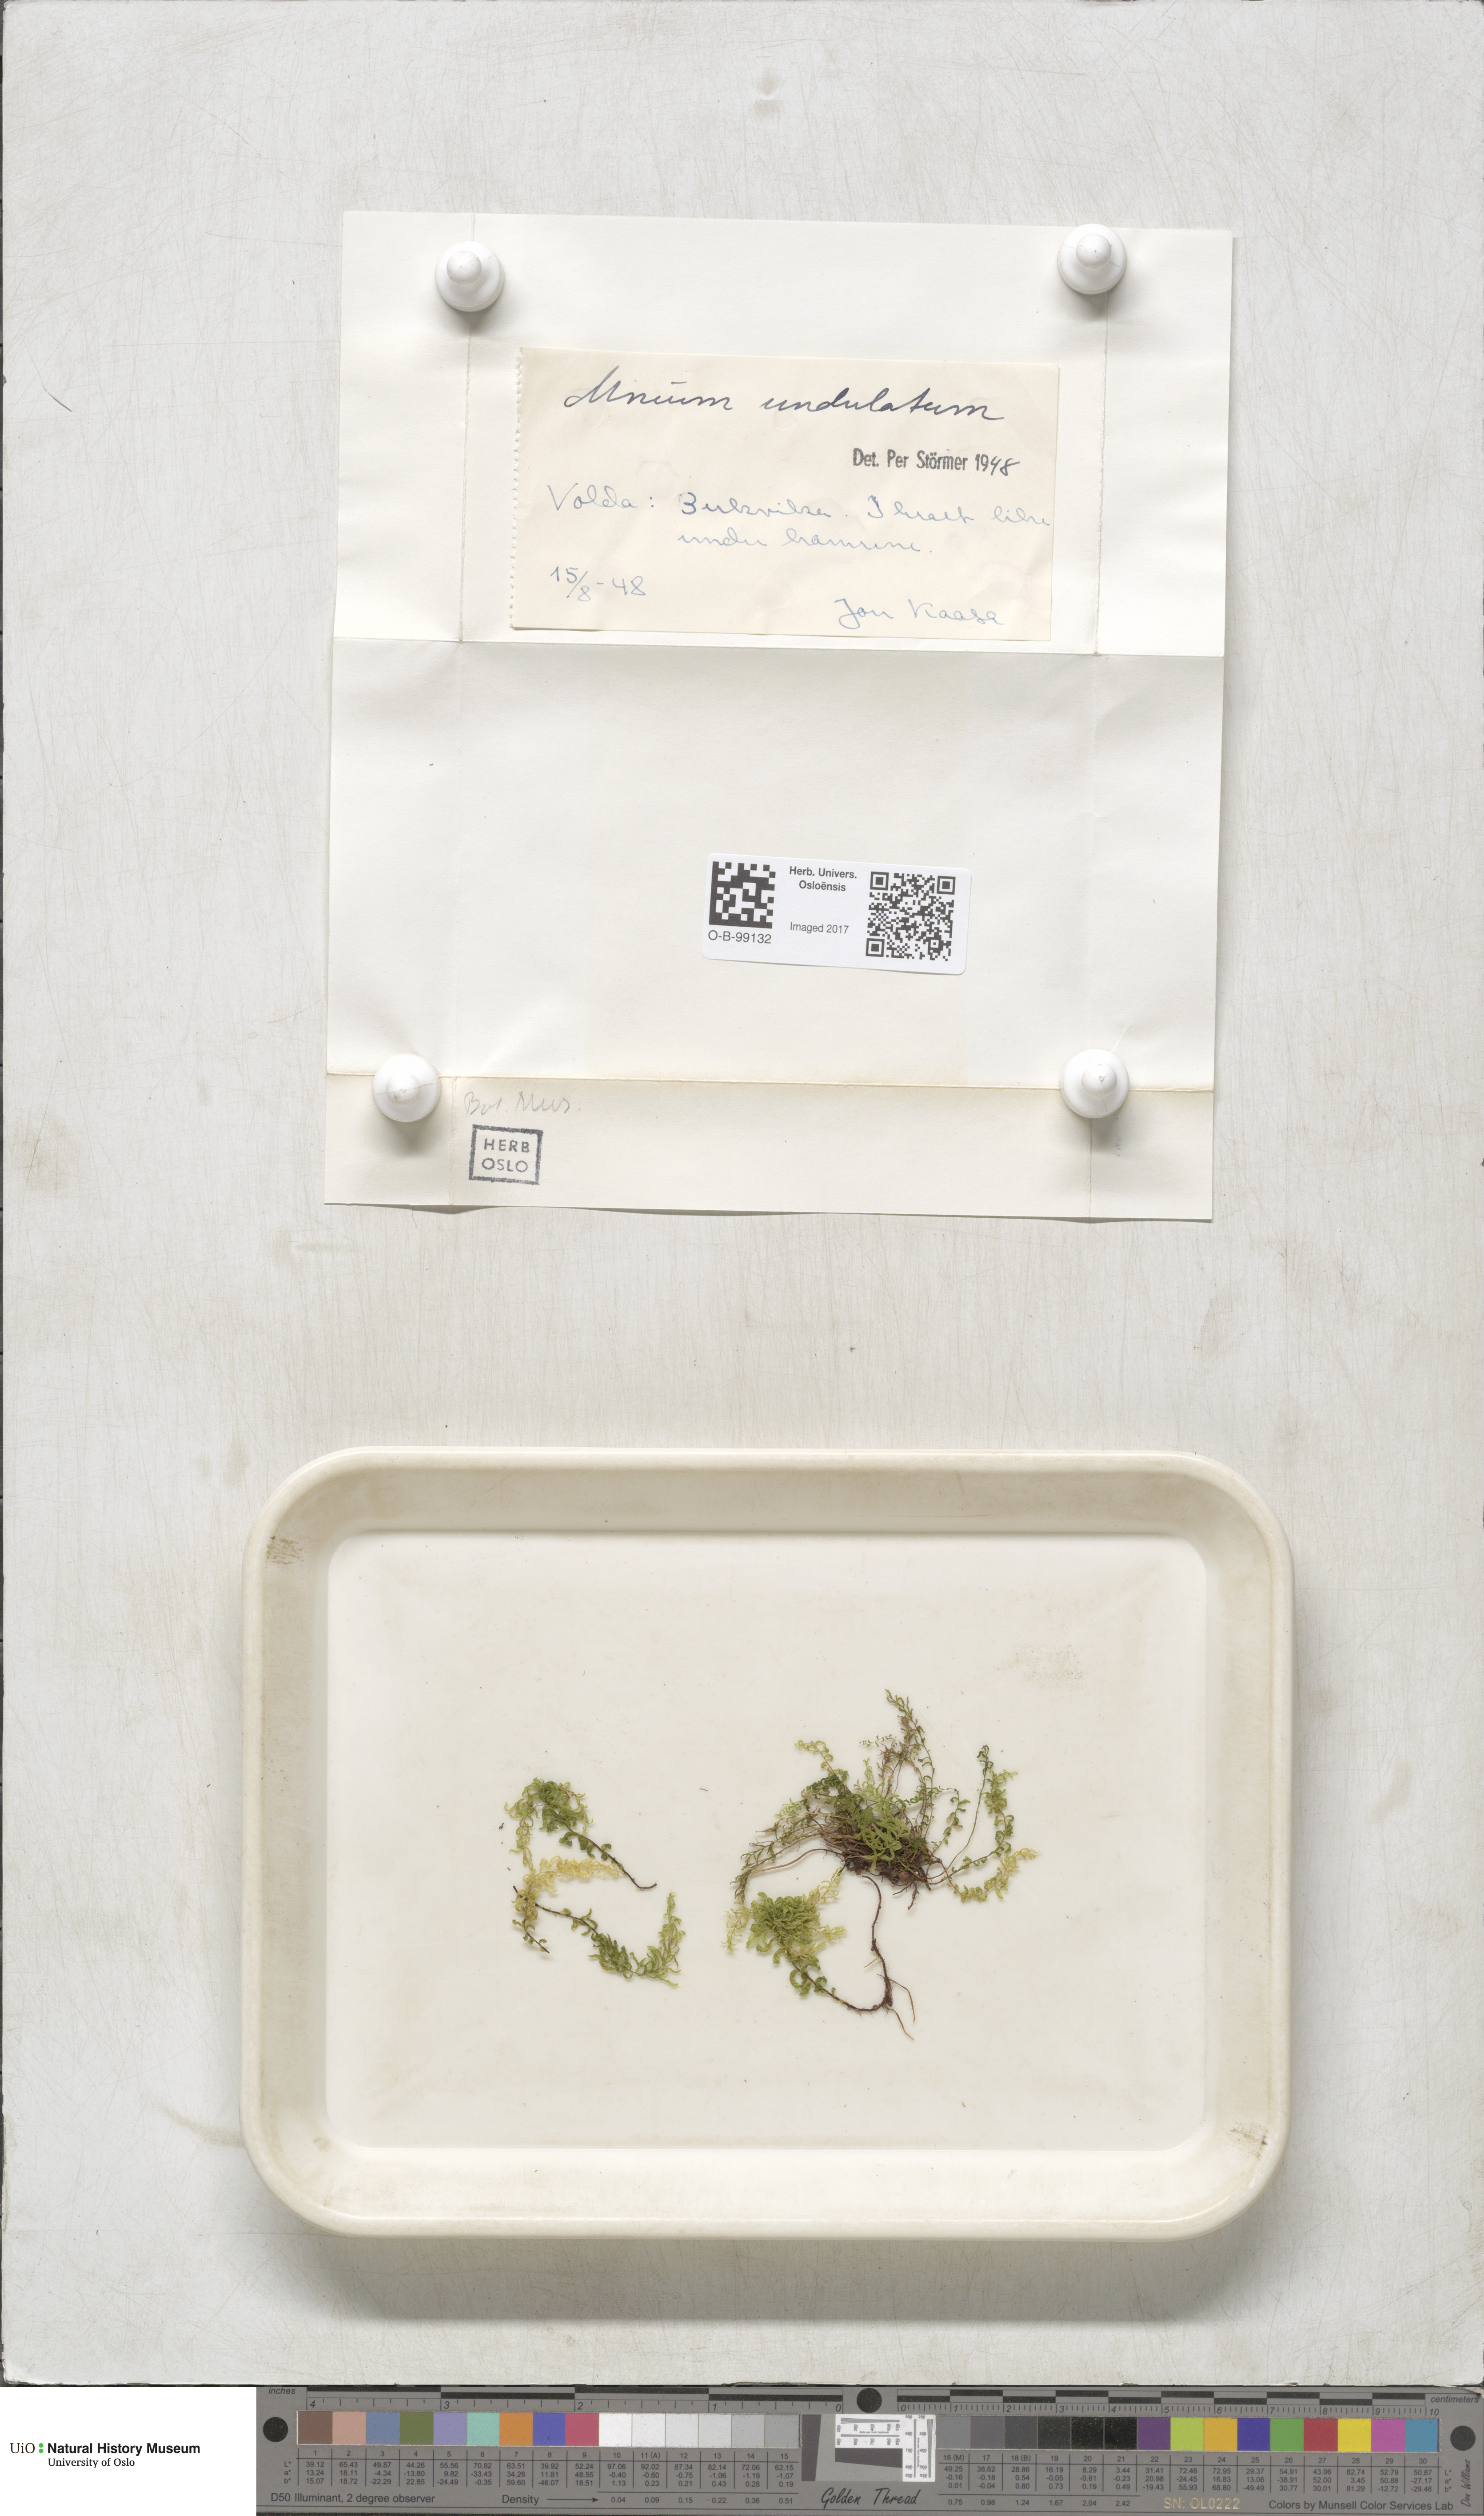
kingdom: Plantae
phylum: Bryophyta
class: Bryopsida
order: Bryales
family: Mniaceae
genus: Plagiomnium
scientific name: Plagiomnium undulatum
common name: Hart's-tongue thyme-moss
